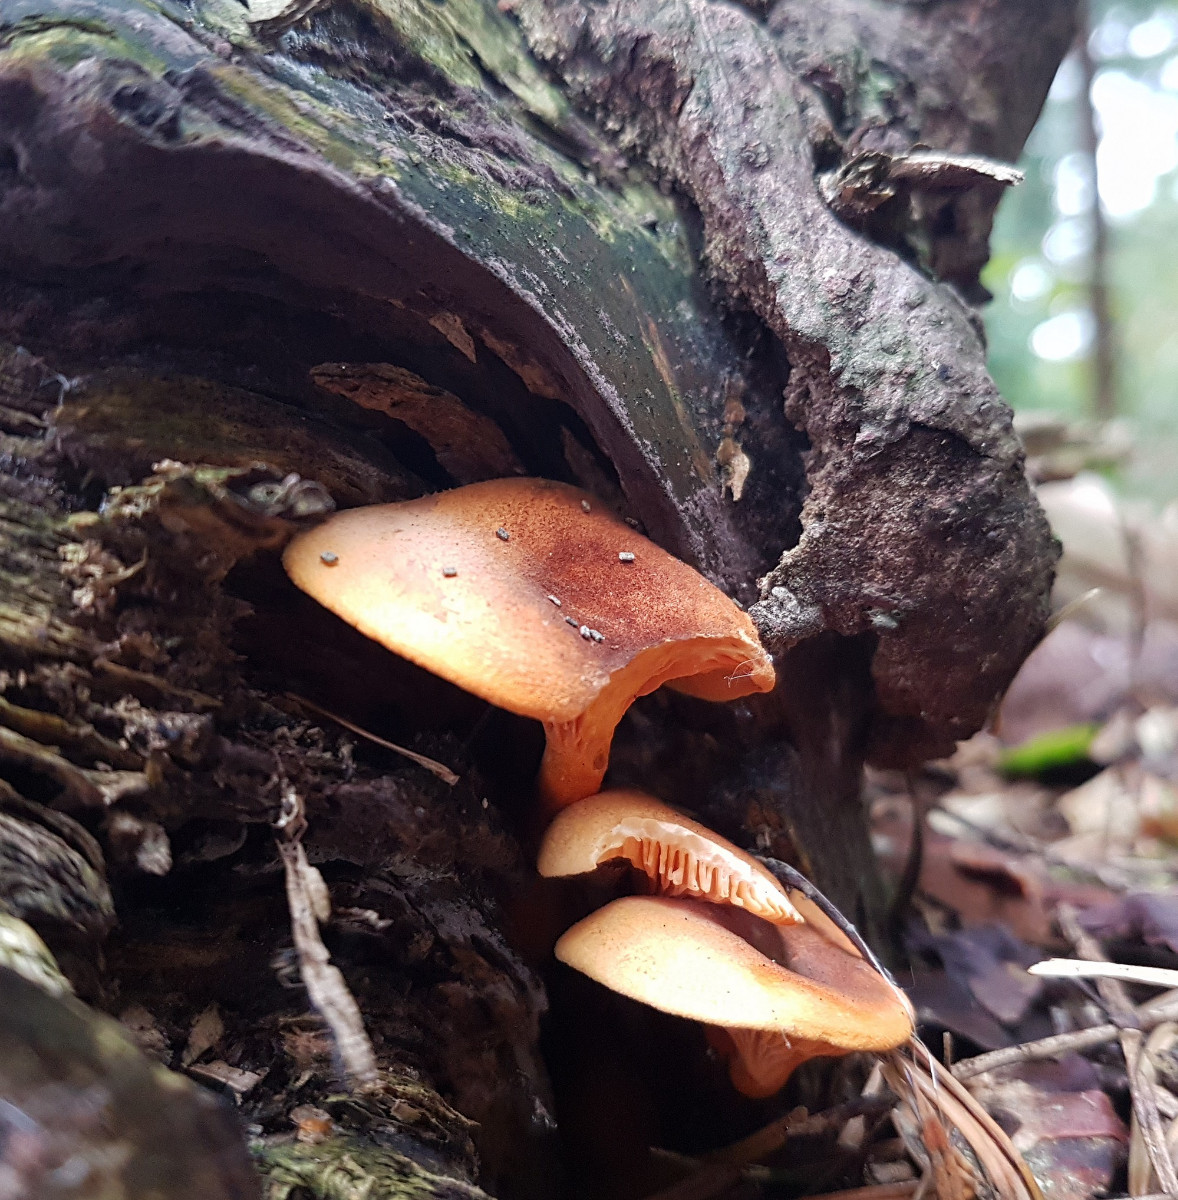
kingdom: Fungi
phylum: Basidiomycota
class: Agaricomycetes
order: Boletales
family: Hygrophoropsidaceae
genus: Hygrophoropsis
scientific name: Hygrophoropsis rufa
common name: brunfiltet orangekantarel
